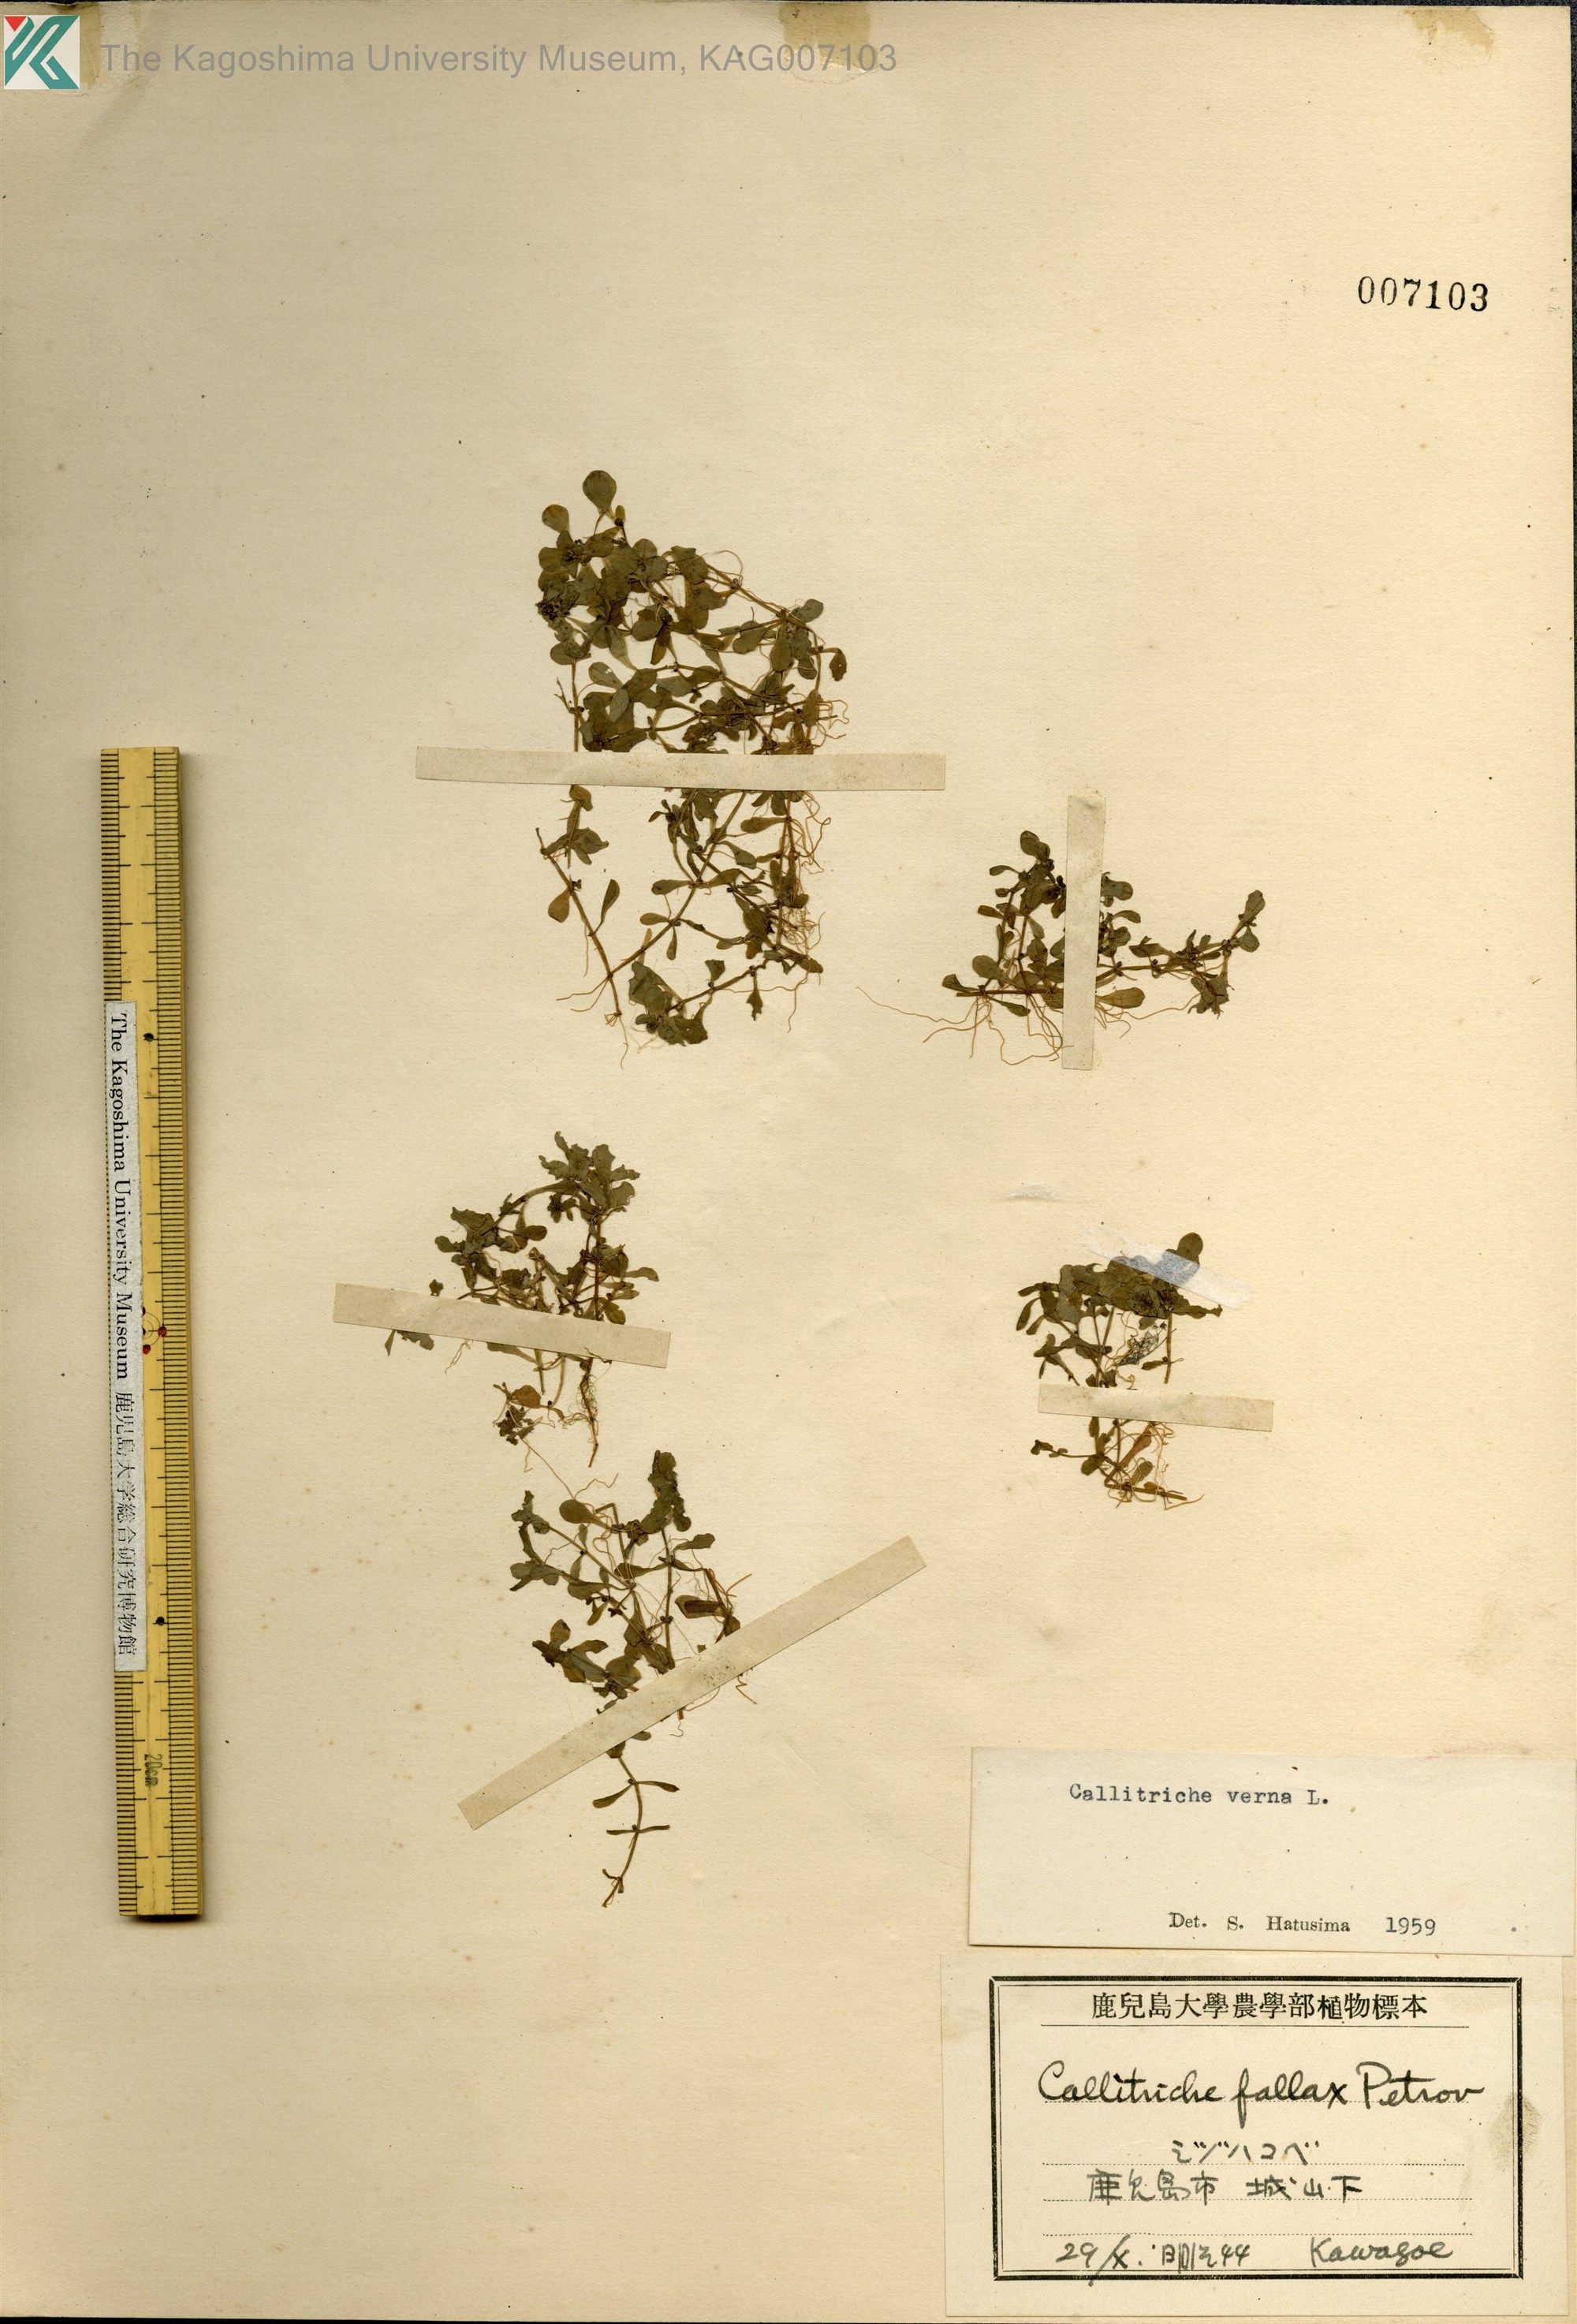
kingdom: Plantae
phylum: Tracheophyta
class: Magnoliopsida
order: Lamiales
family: Plantaginaceae
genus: Callitriche
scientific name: Callitriche palustris
